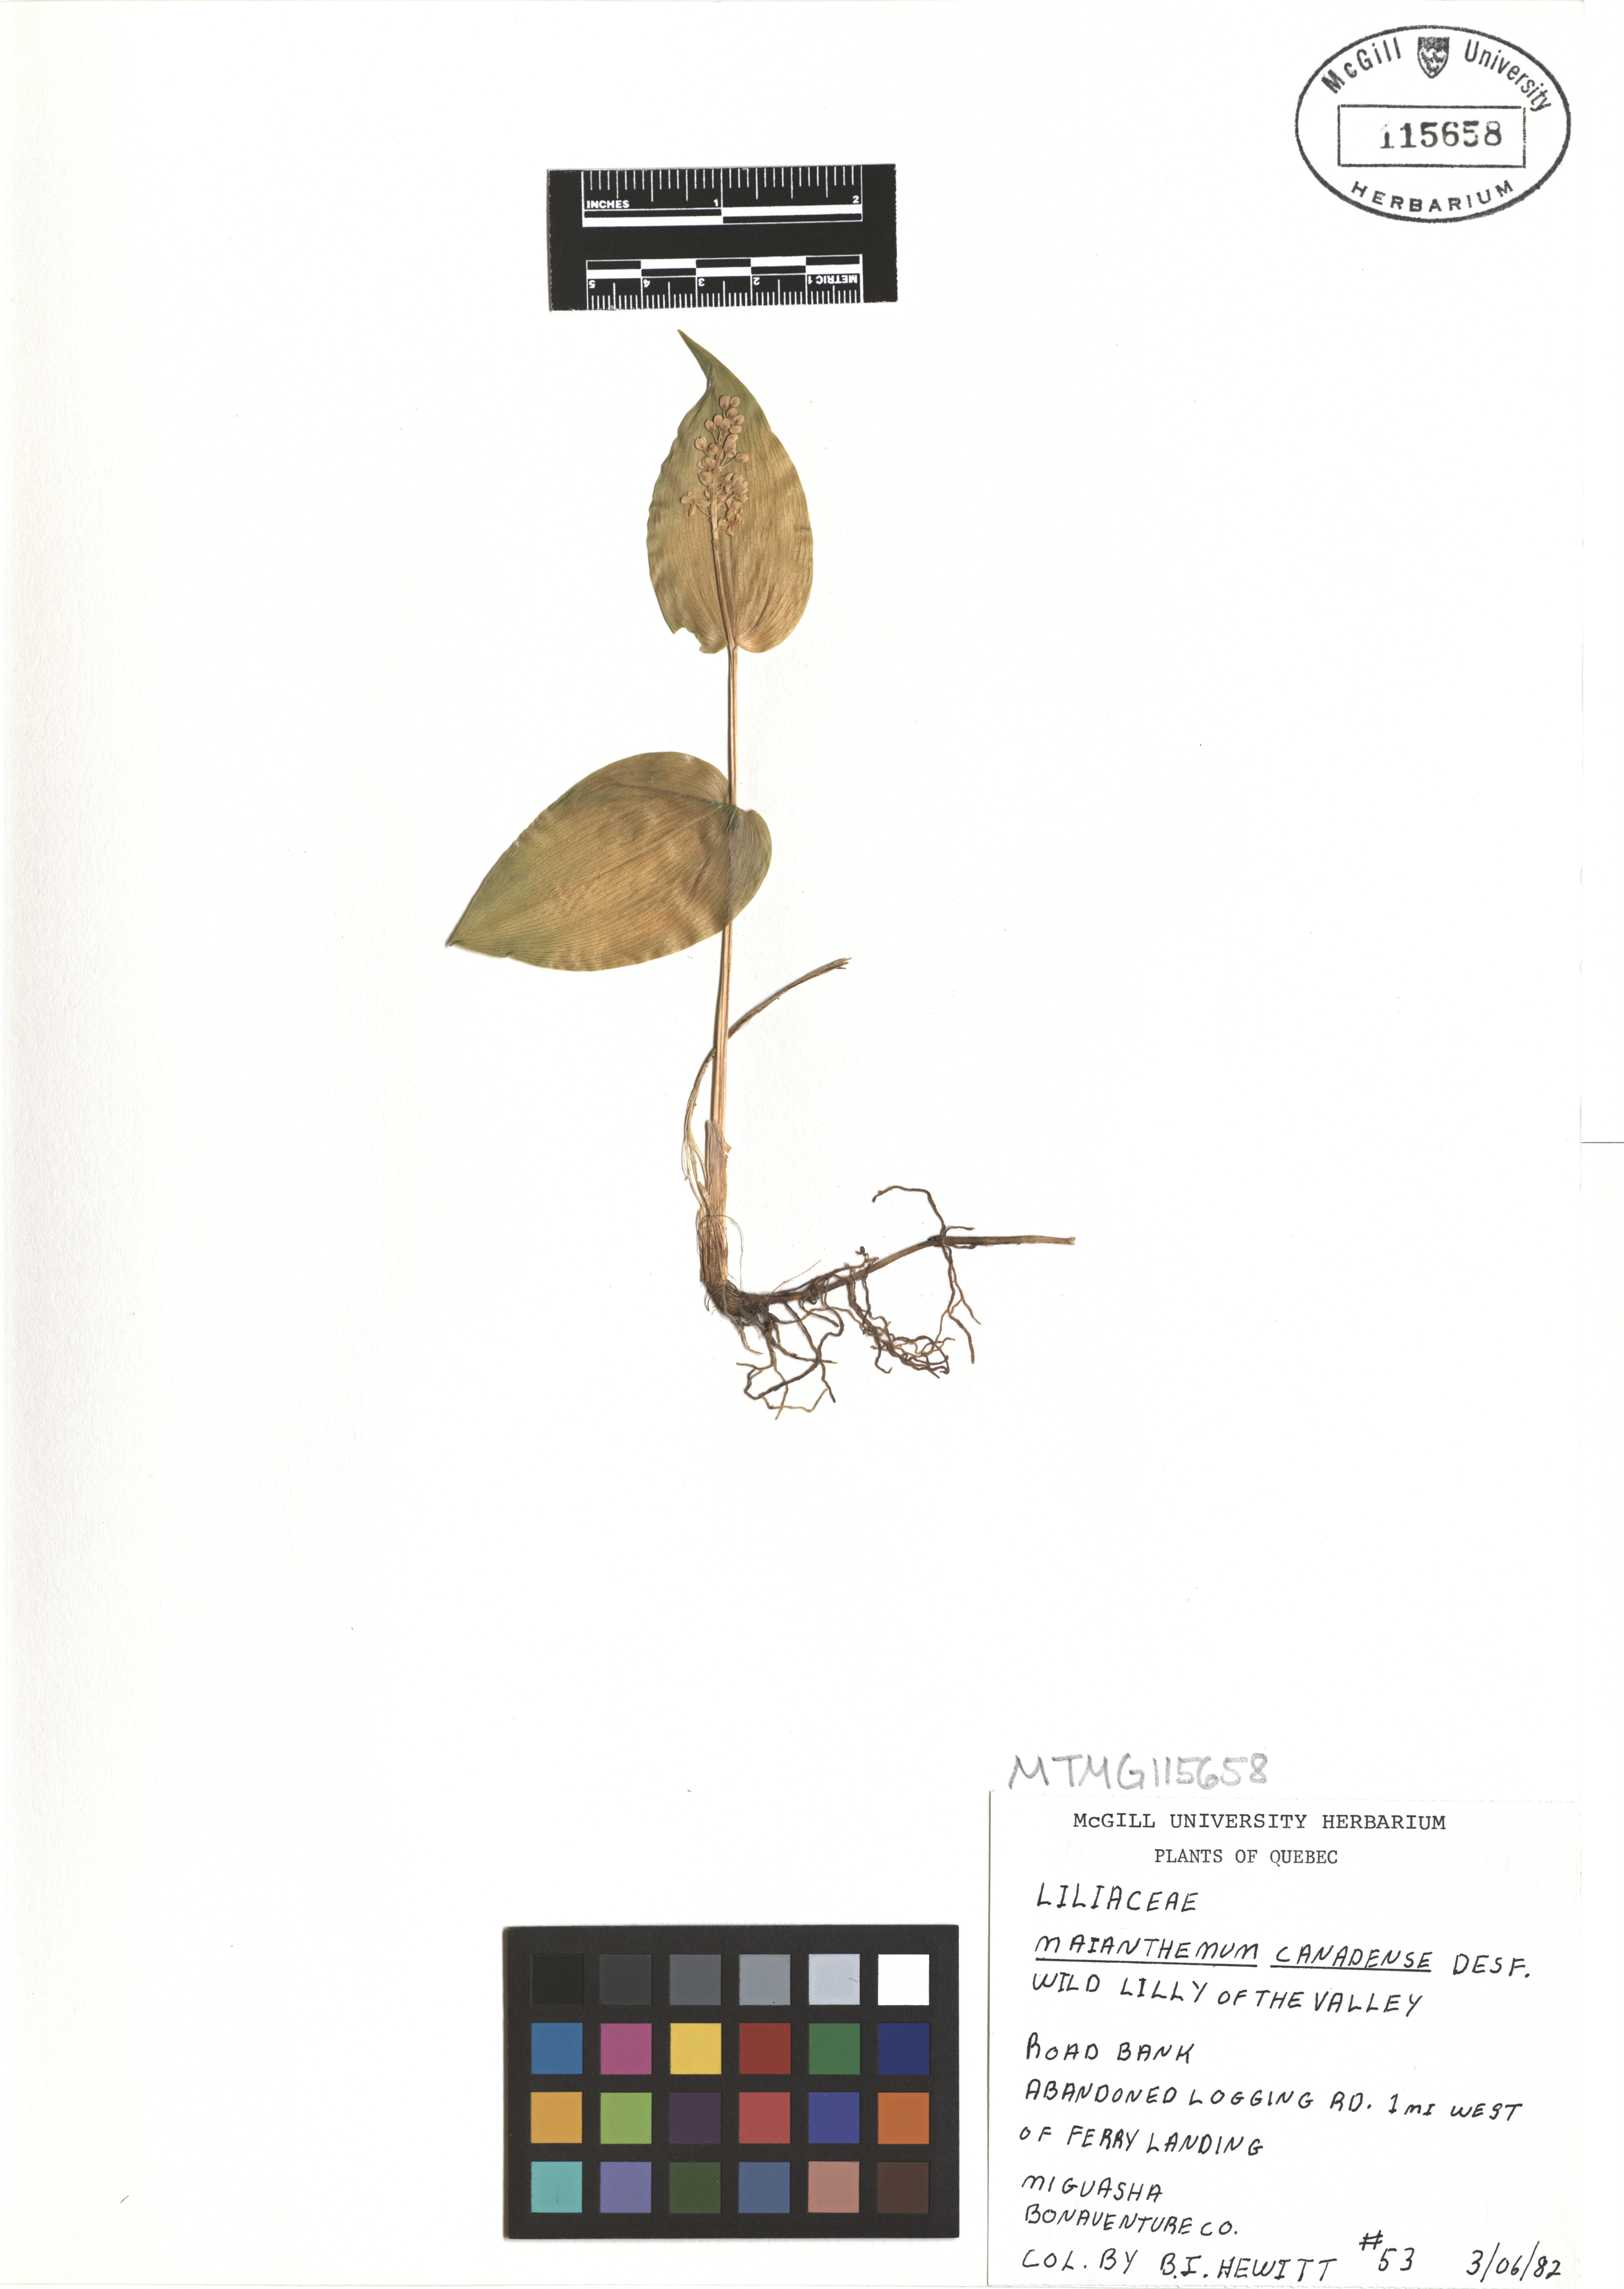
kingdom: Plantae
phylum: Tracheophyta
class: Liliopsida
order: Asparagales
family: Asparagaceae
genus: Maianthemum
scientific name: Maianthemum canadense
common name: False lily-of-the-valley
